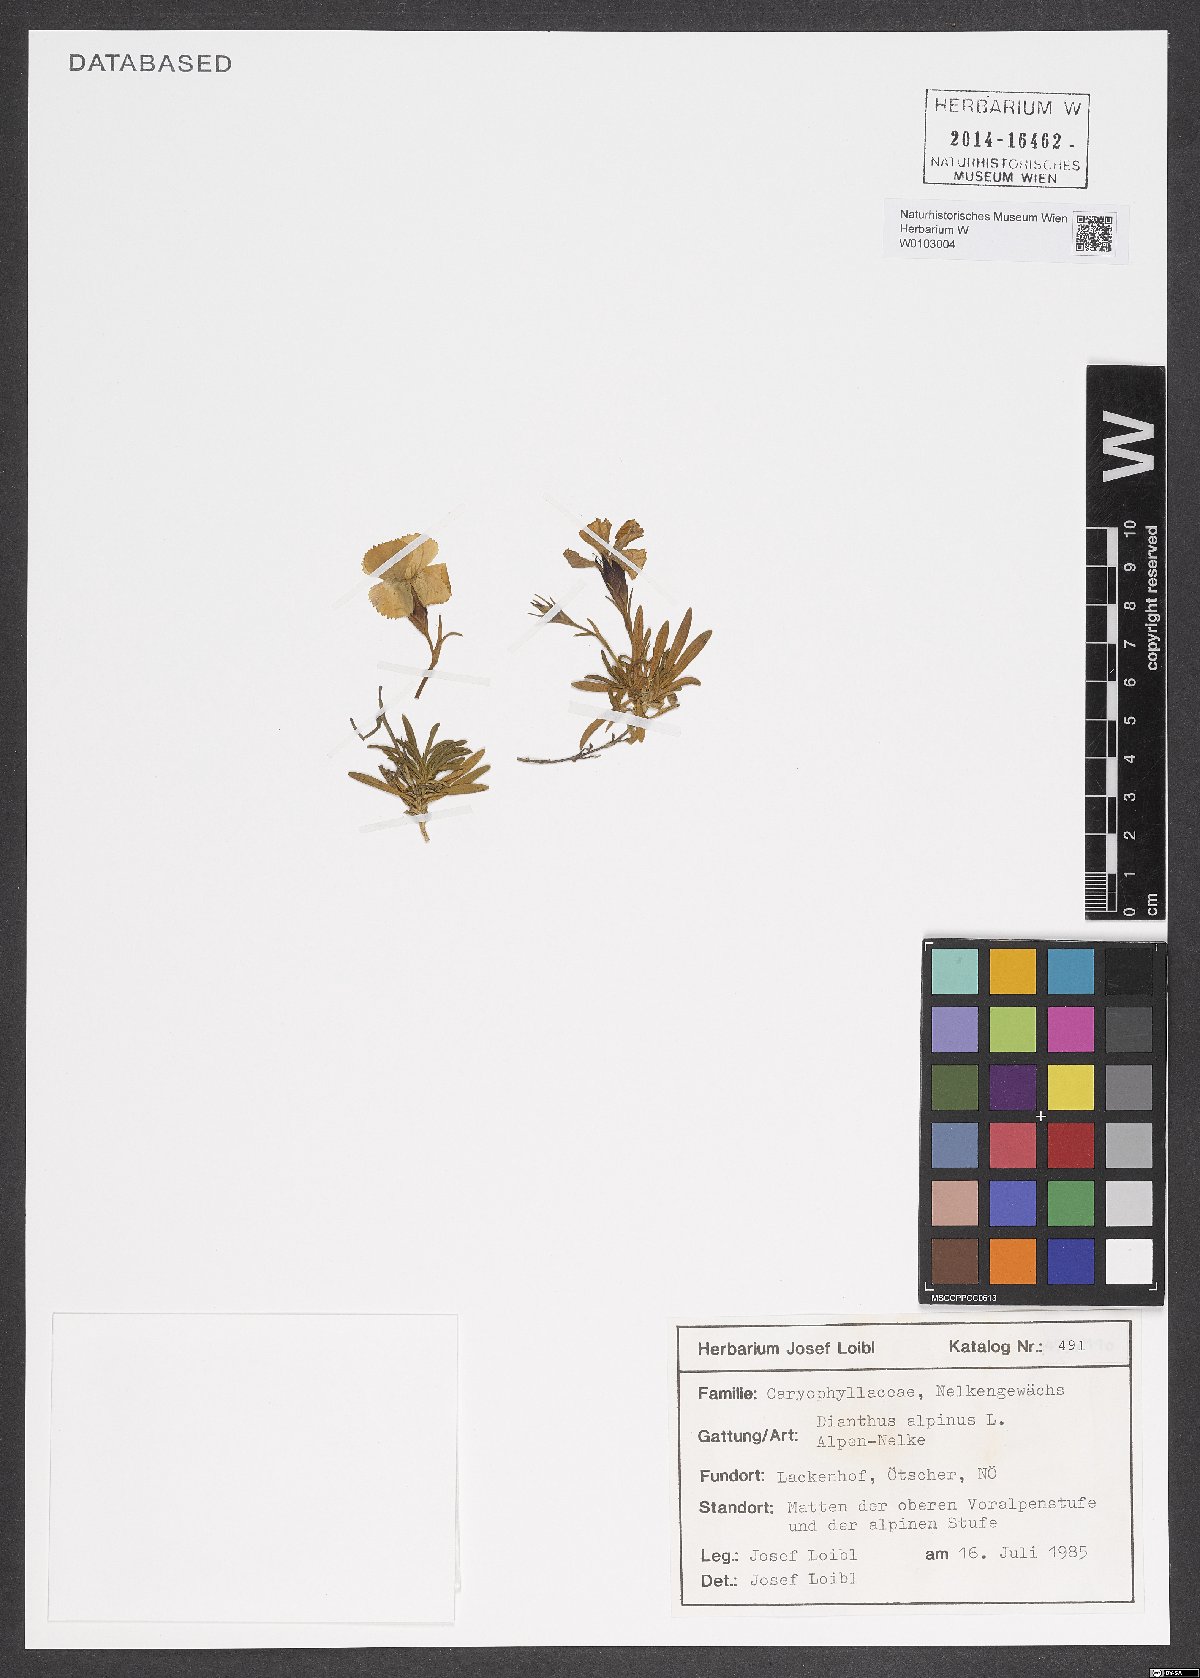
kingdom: Plantae
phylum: Tracheophyta
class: Magnoliopsida
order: Caryophyllales
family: Caryophyllaceae
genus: Dianthus
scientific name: Dianthus alpinus
